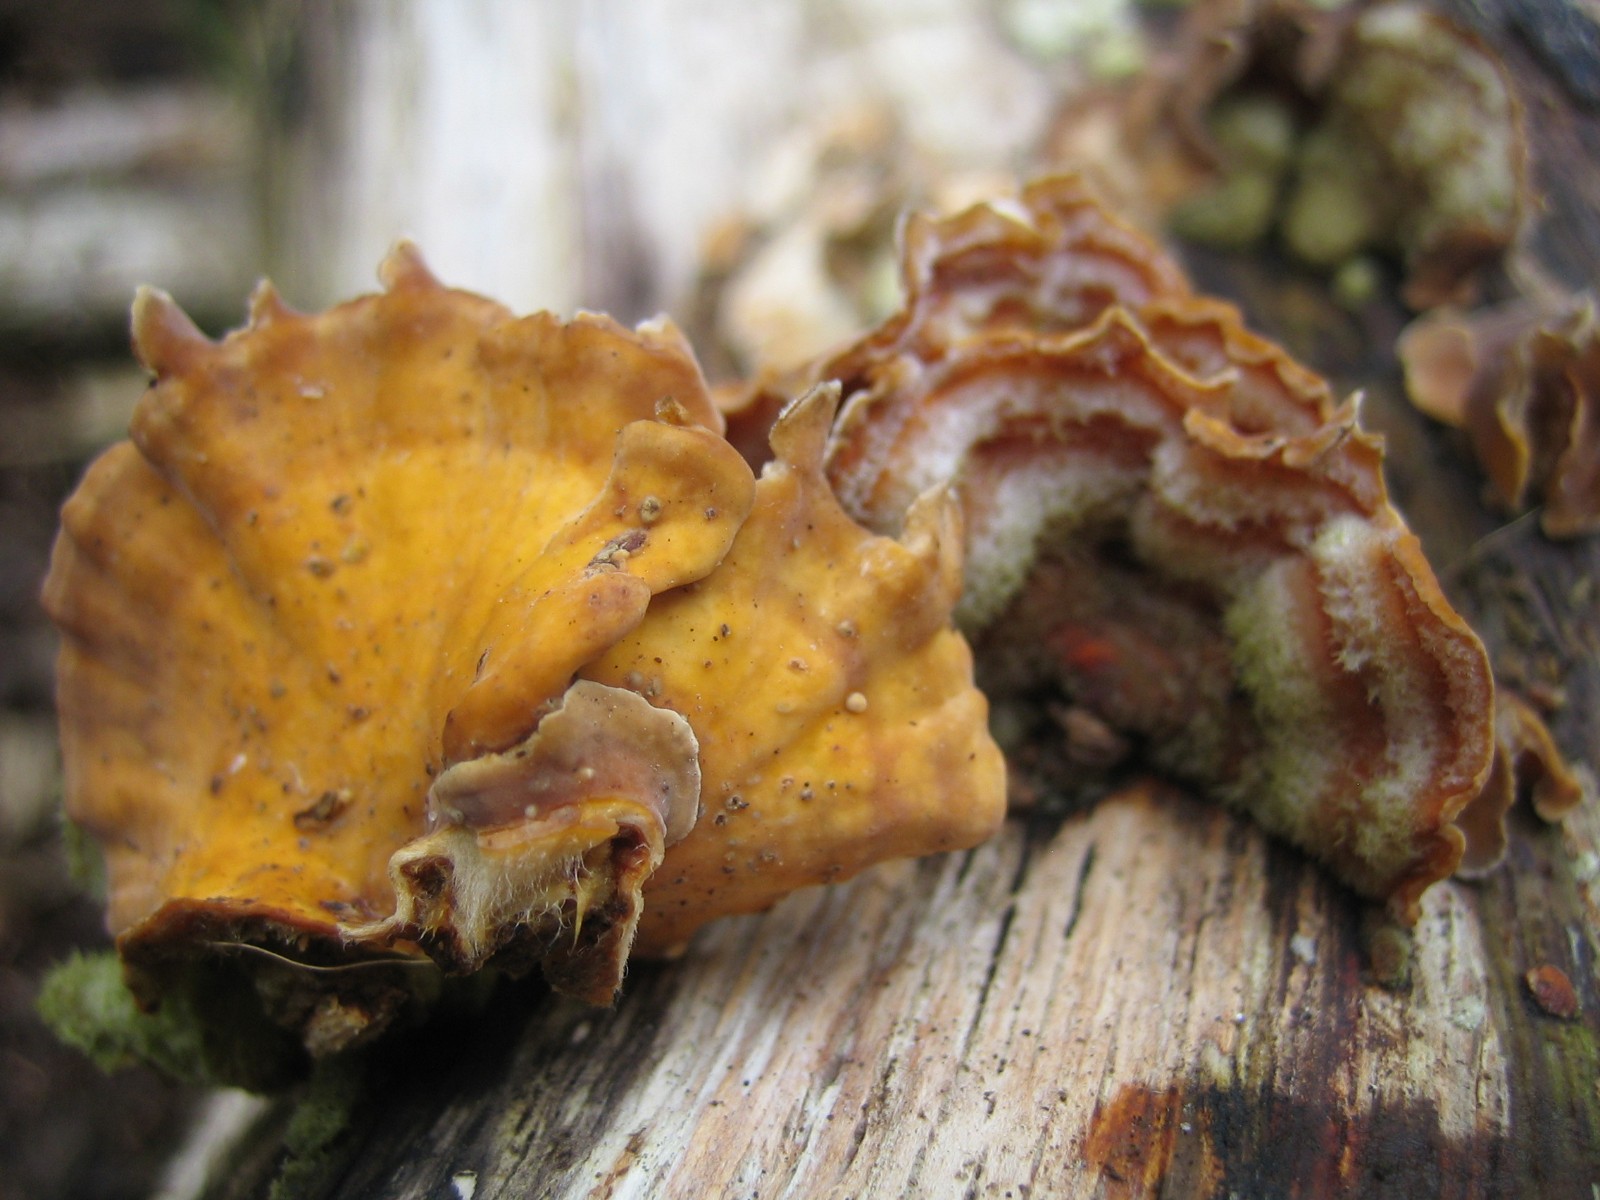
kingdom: Fungi
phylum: Basidiomycota
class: Agaricomycetes
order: Russulales
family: Stereaceae
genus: Stereum
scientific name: Stereum hirsutum
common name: håret lædersvamp
